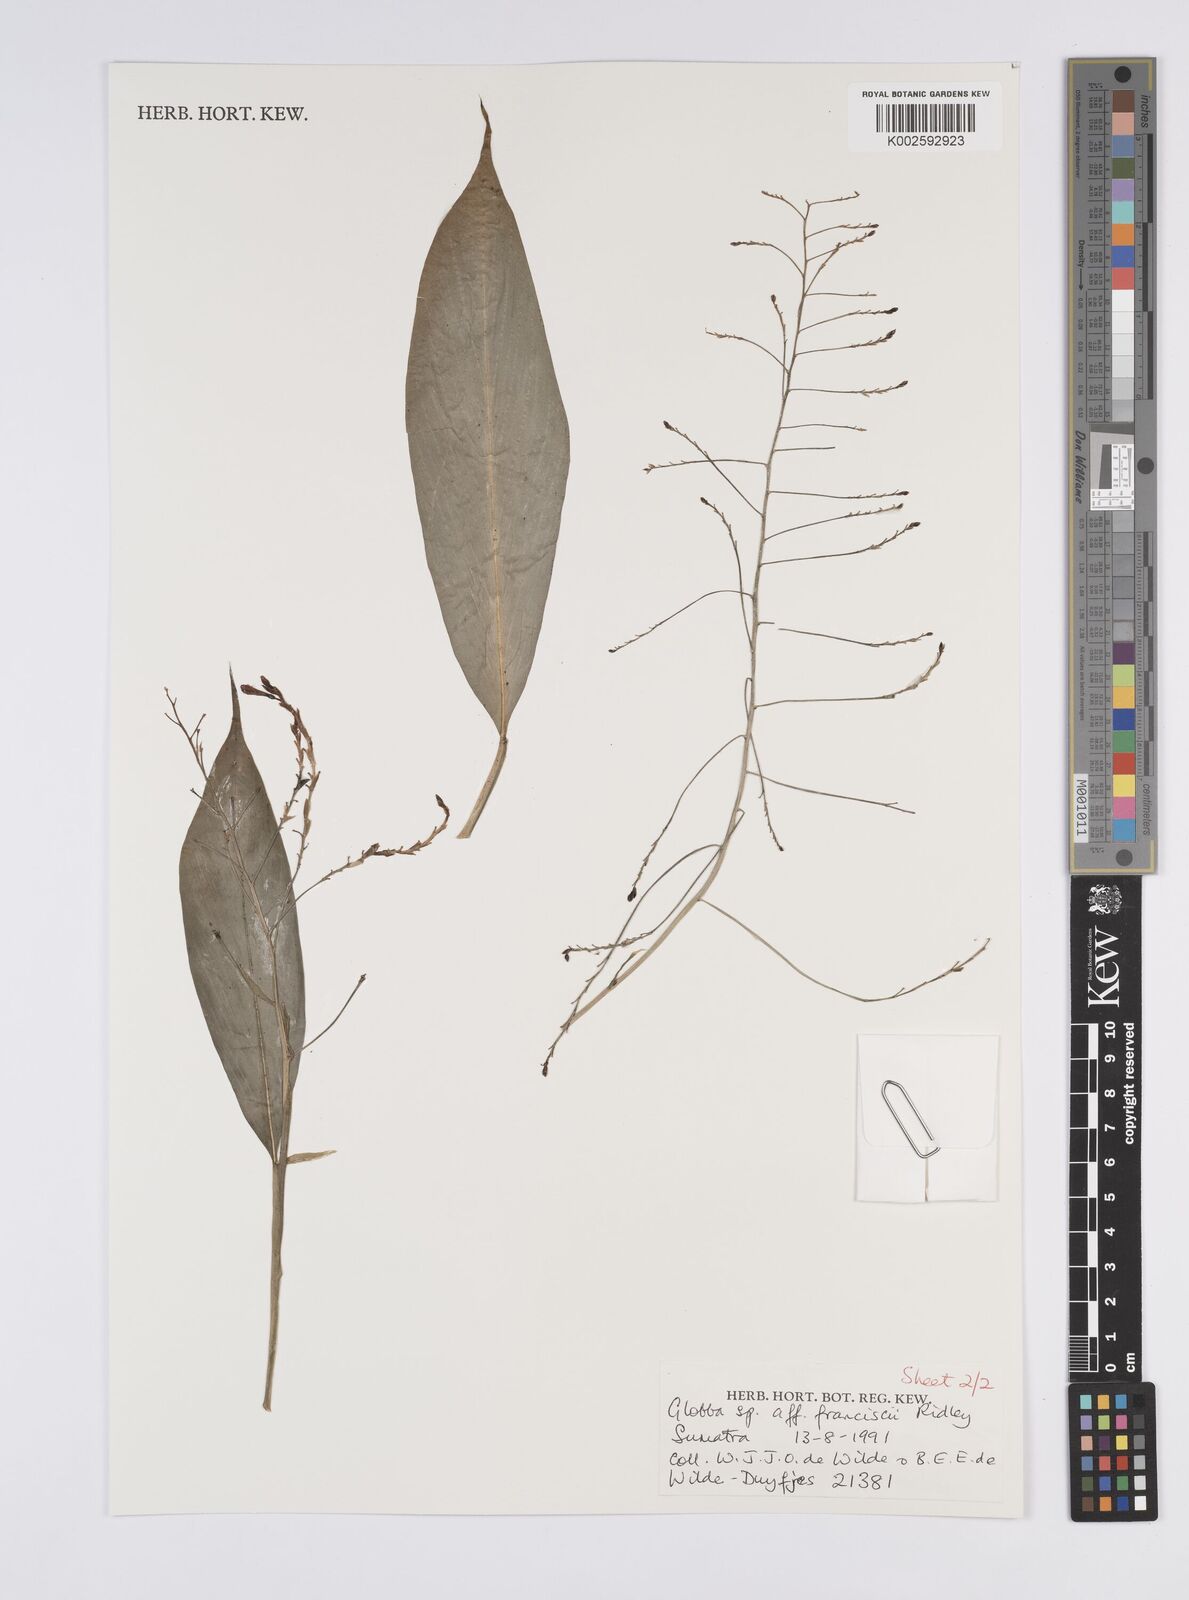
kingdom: Plantae
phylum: Tracheophyta
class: Liliopsida
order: Zingiberales
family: Zingiberaceae
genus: Globba
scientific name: Globba francisci
